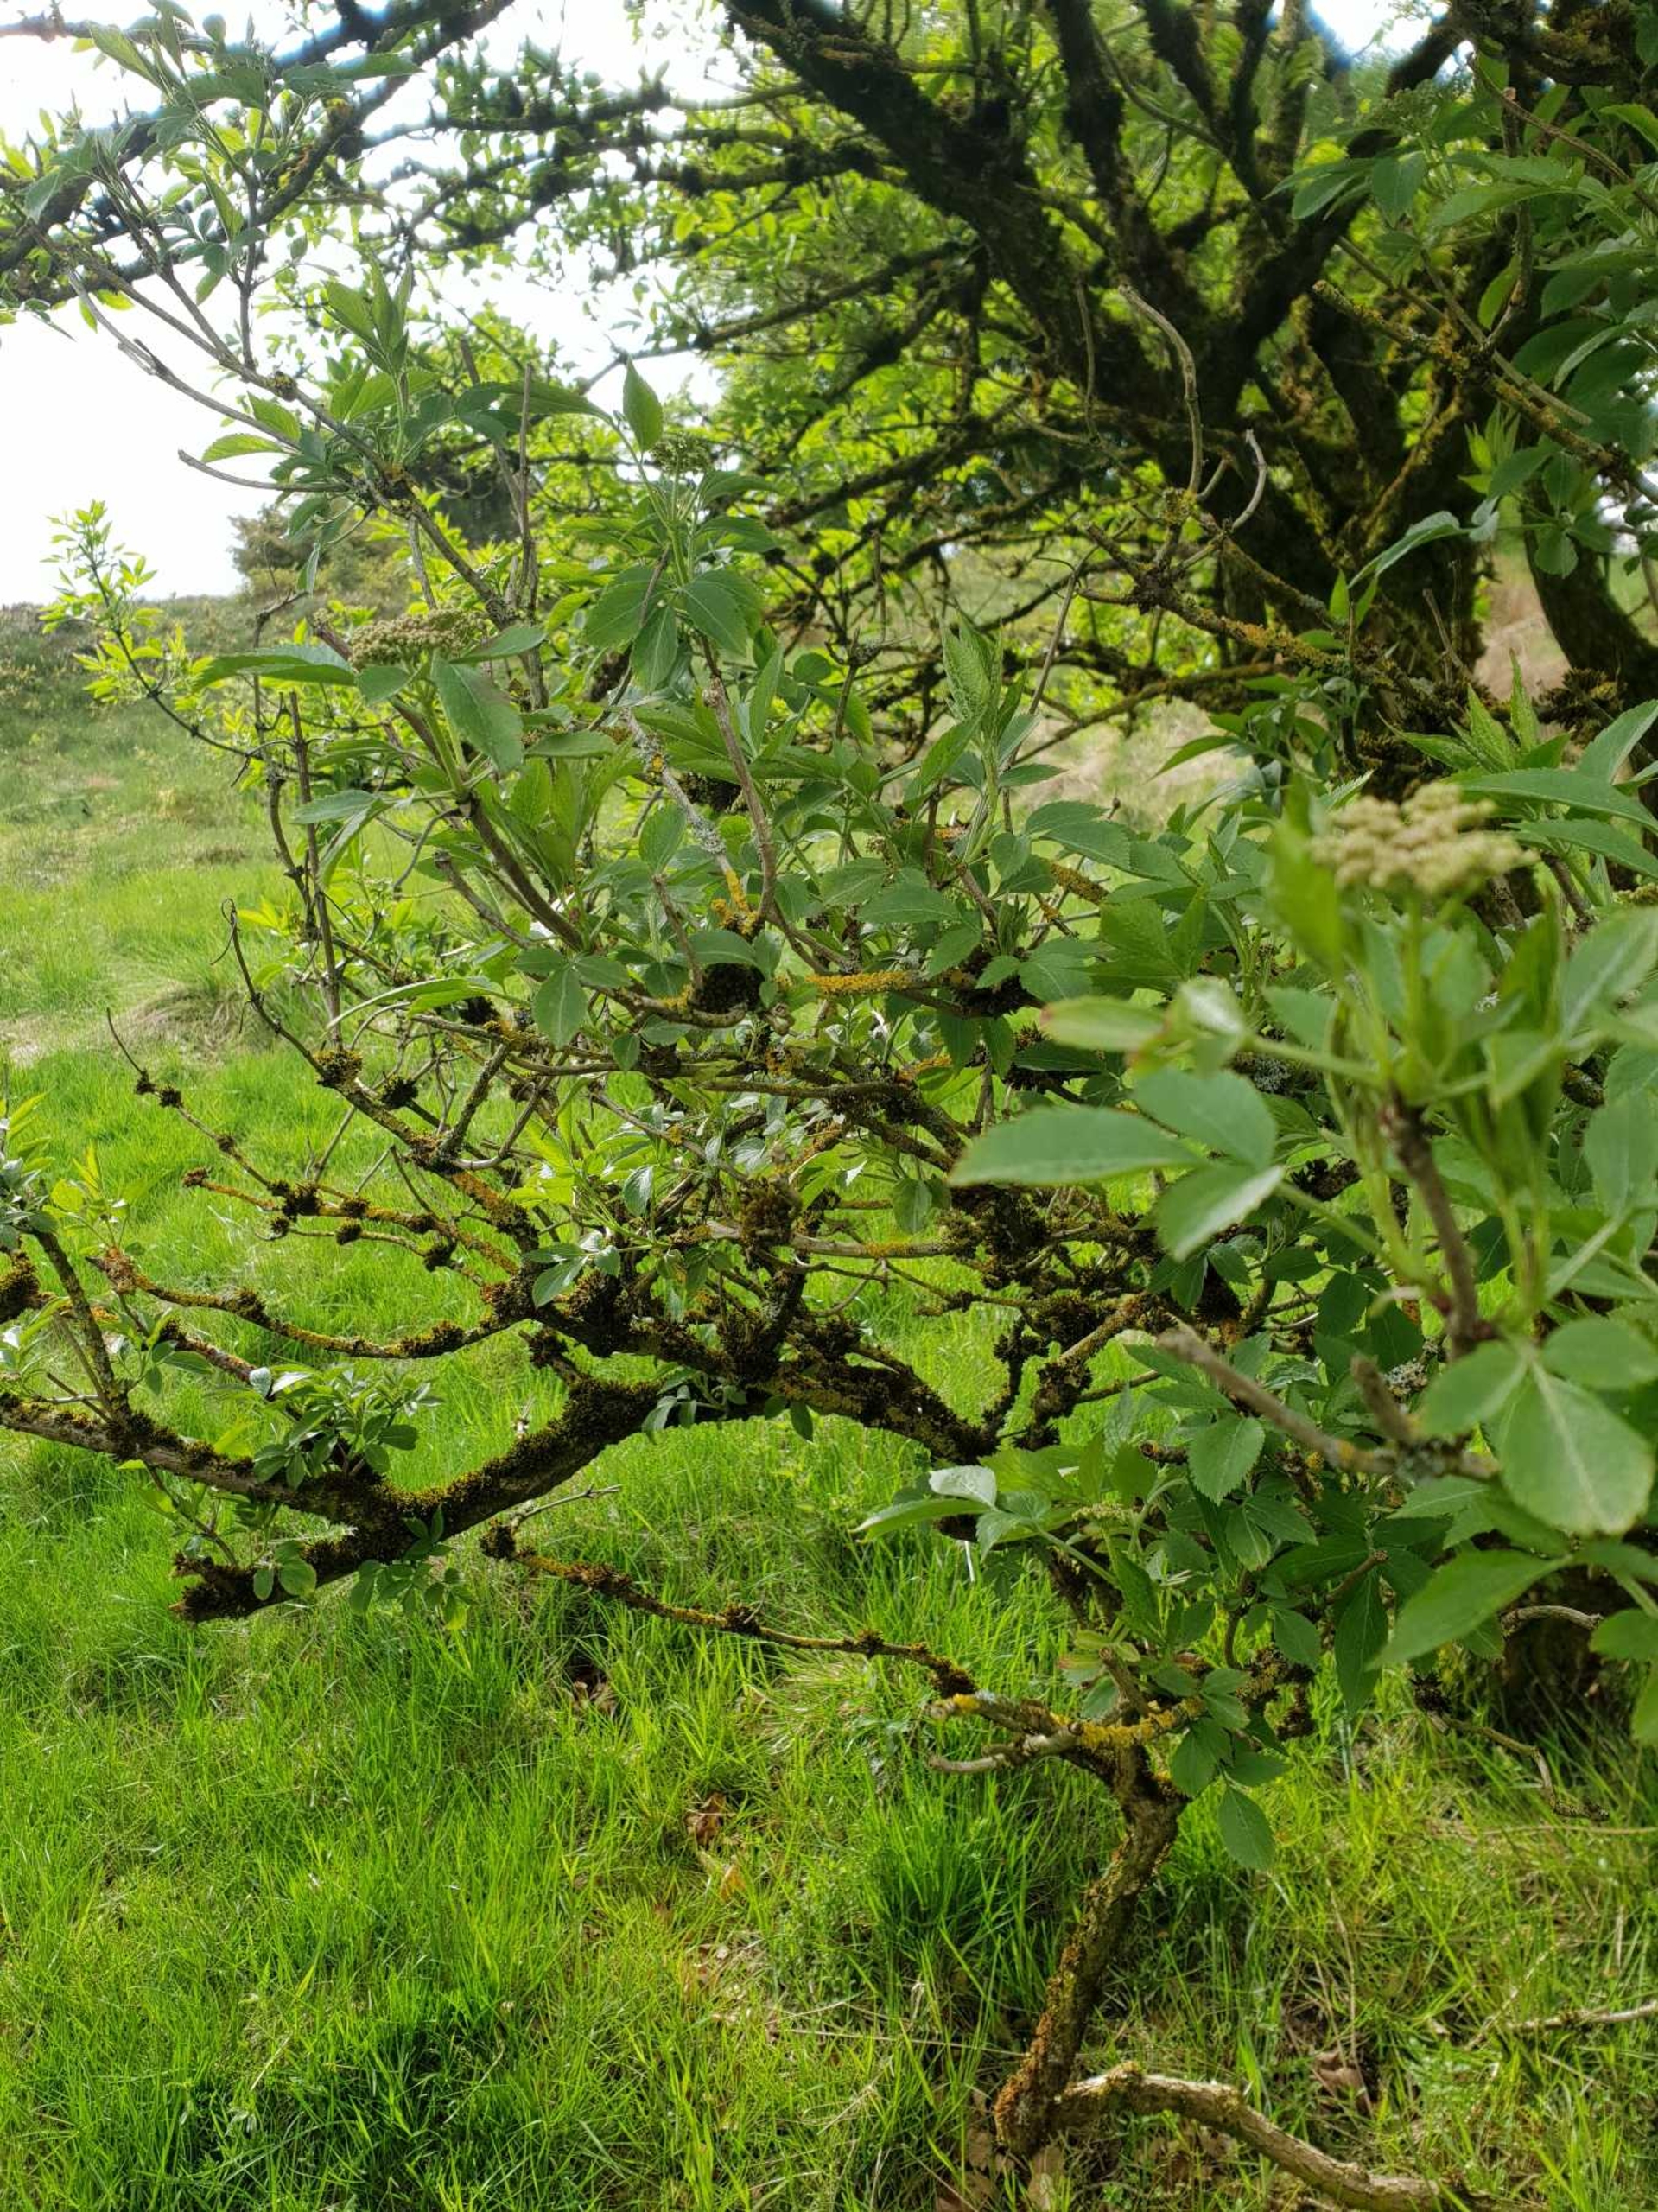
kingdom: Plantae
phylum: Tracheophyta
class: Magnoliopsida
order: Dipsacales
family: Viburnaceae
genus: Sambucus
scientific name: Sambucus nigra
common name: Almindelig hyld
